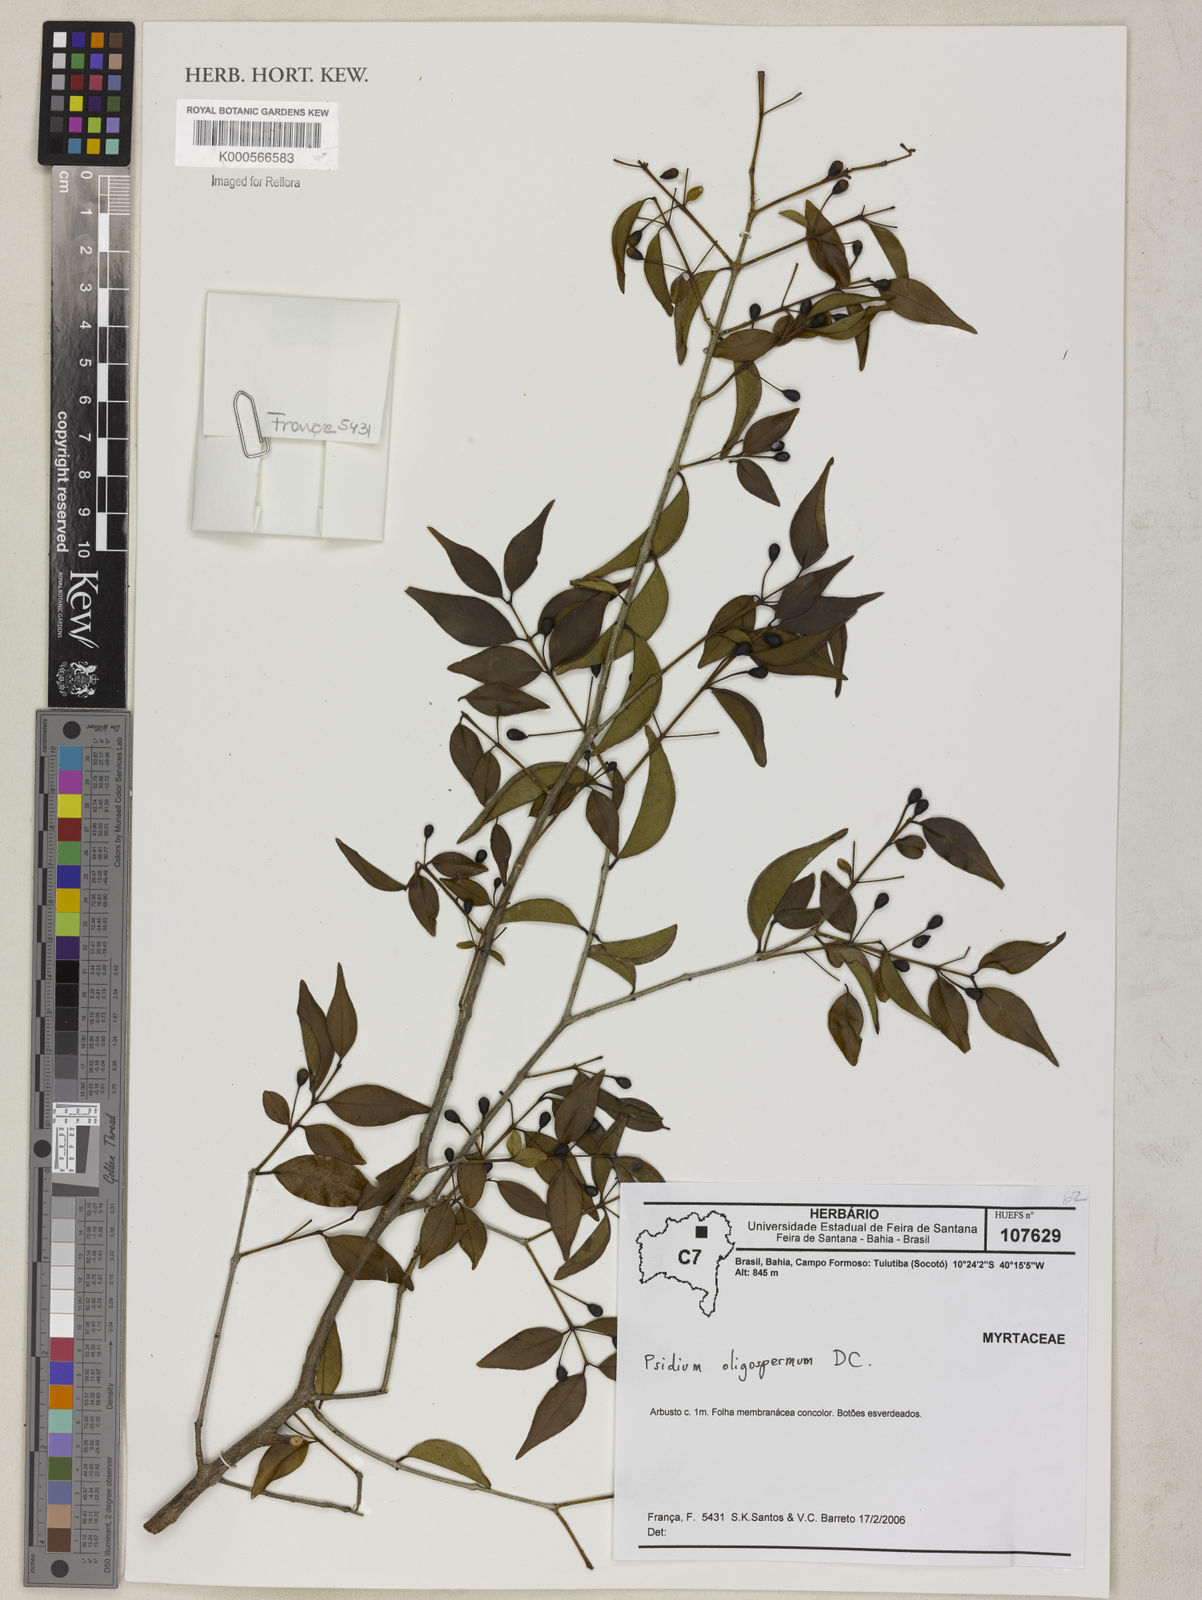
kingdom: Plantae
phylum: Tracheophyta
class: Magnoliopsida
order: Myrtales
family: Myrtaceae
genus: Psidium
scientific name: Psidium oligospermum
